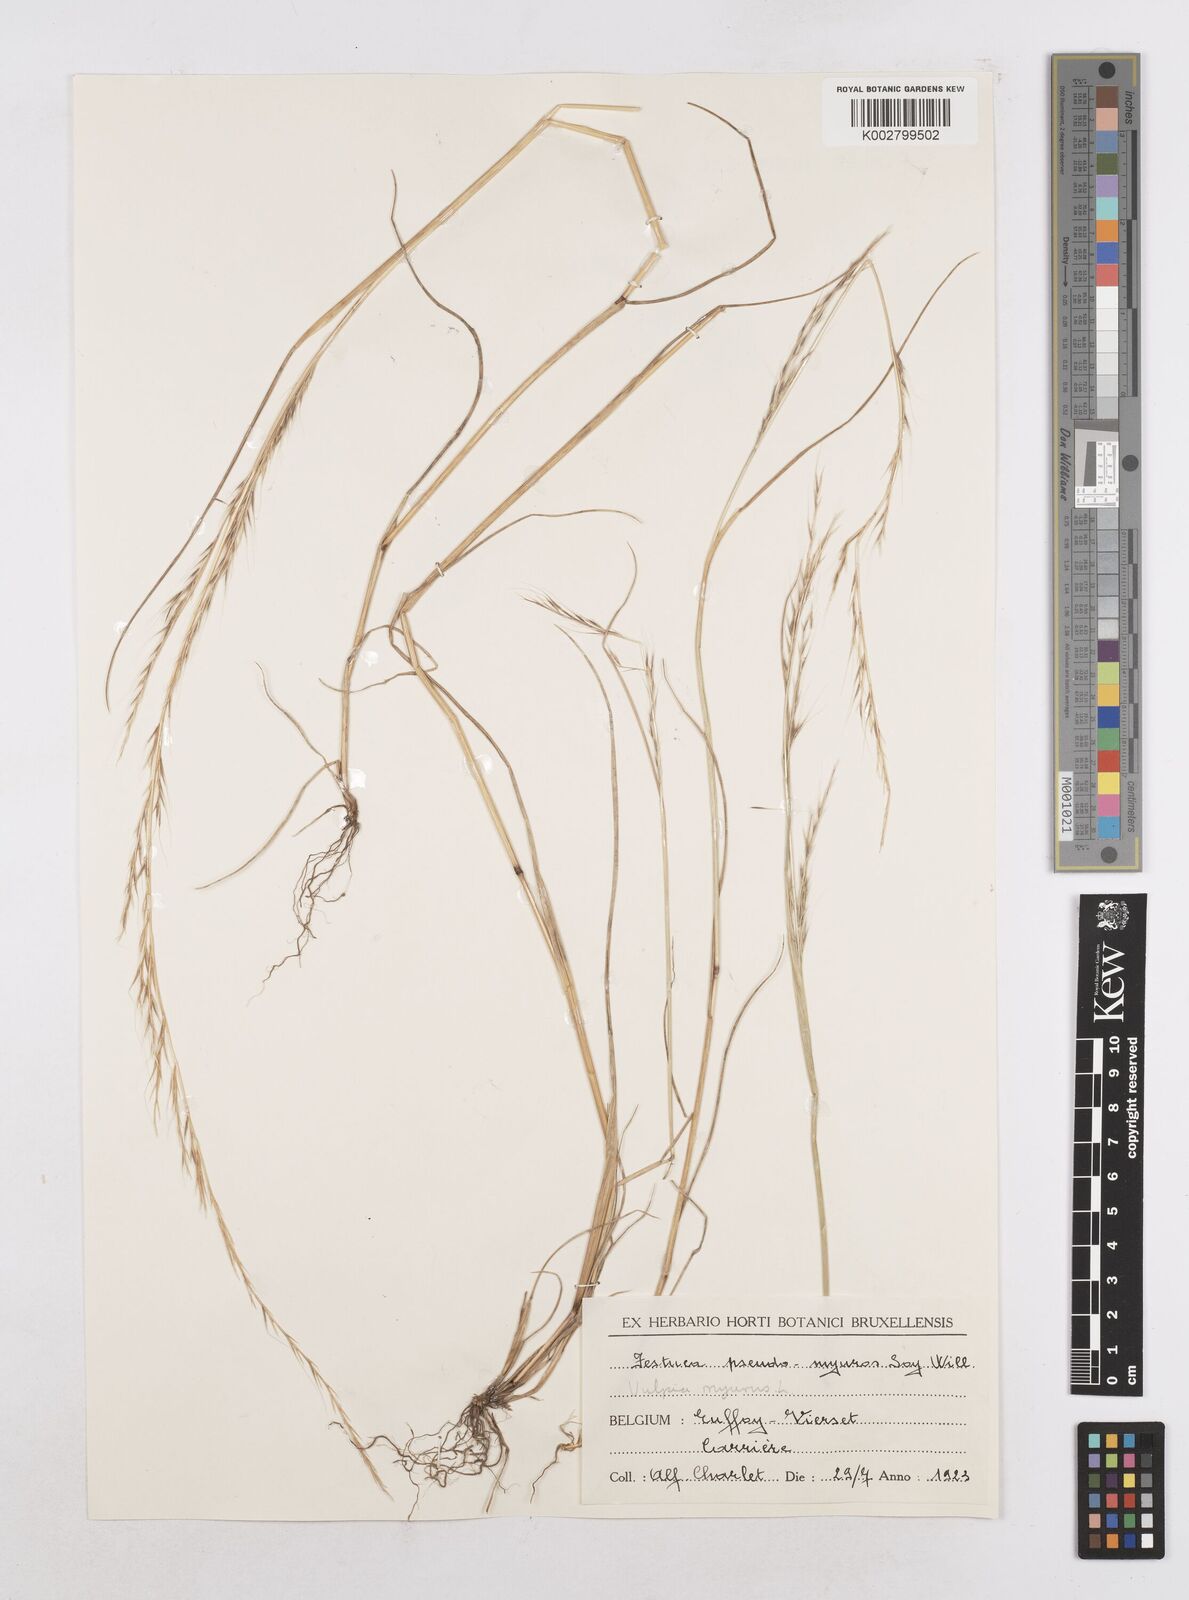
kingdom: Plantae
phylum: Tracheophyta
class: Liliopsida
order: Poales
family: Poaceae
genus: Festuca
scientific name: Festuca myuros
